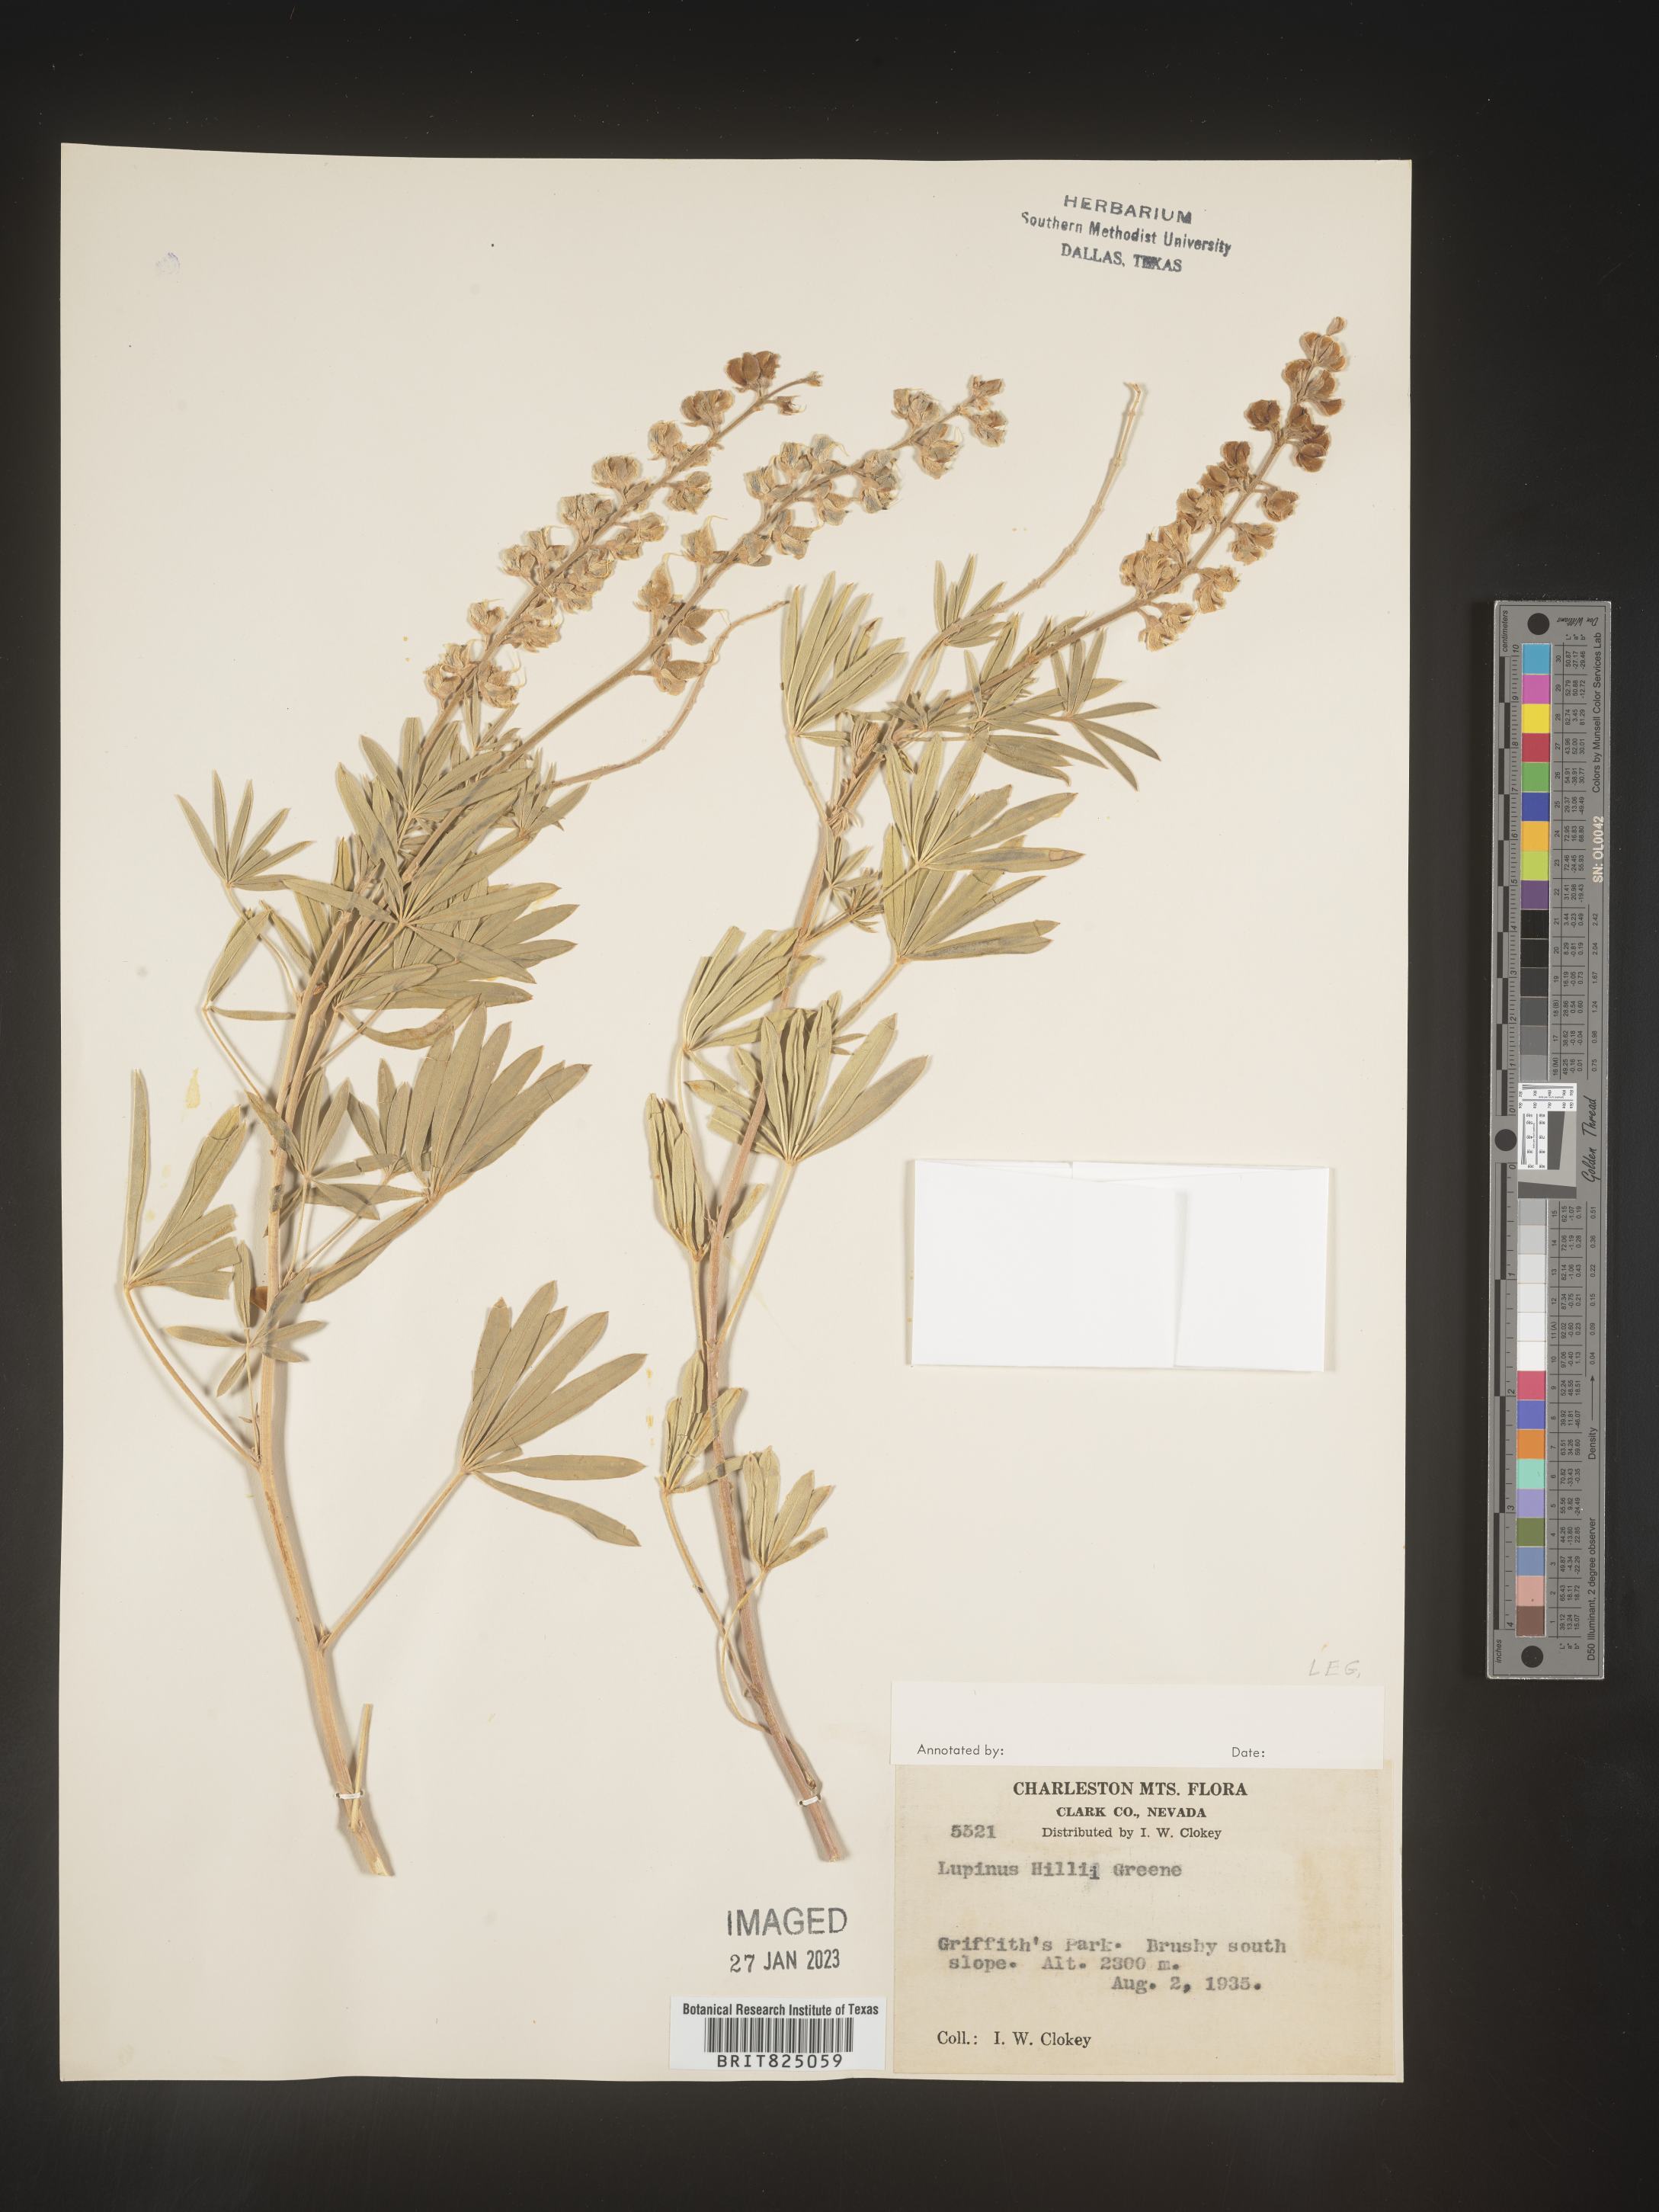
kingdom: Plantae
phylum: Tracheophyta
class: Magnoliopsida
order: Fabales
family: Fabaceae
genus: Lupinus
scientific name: Lupinus
